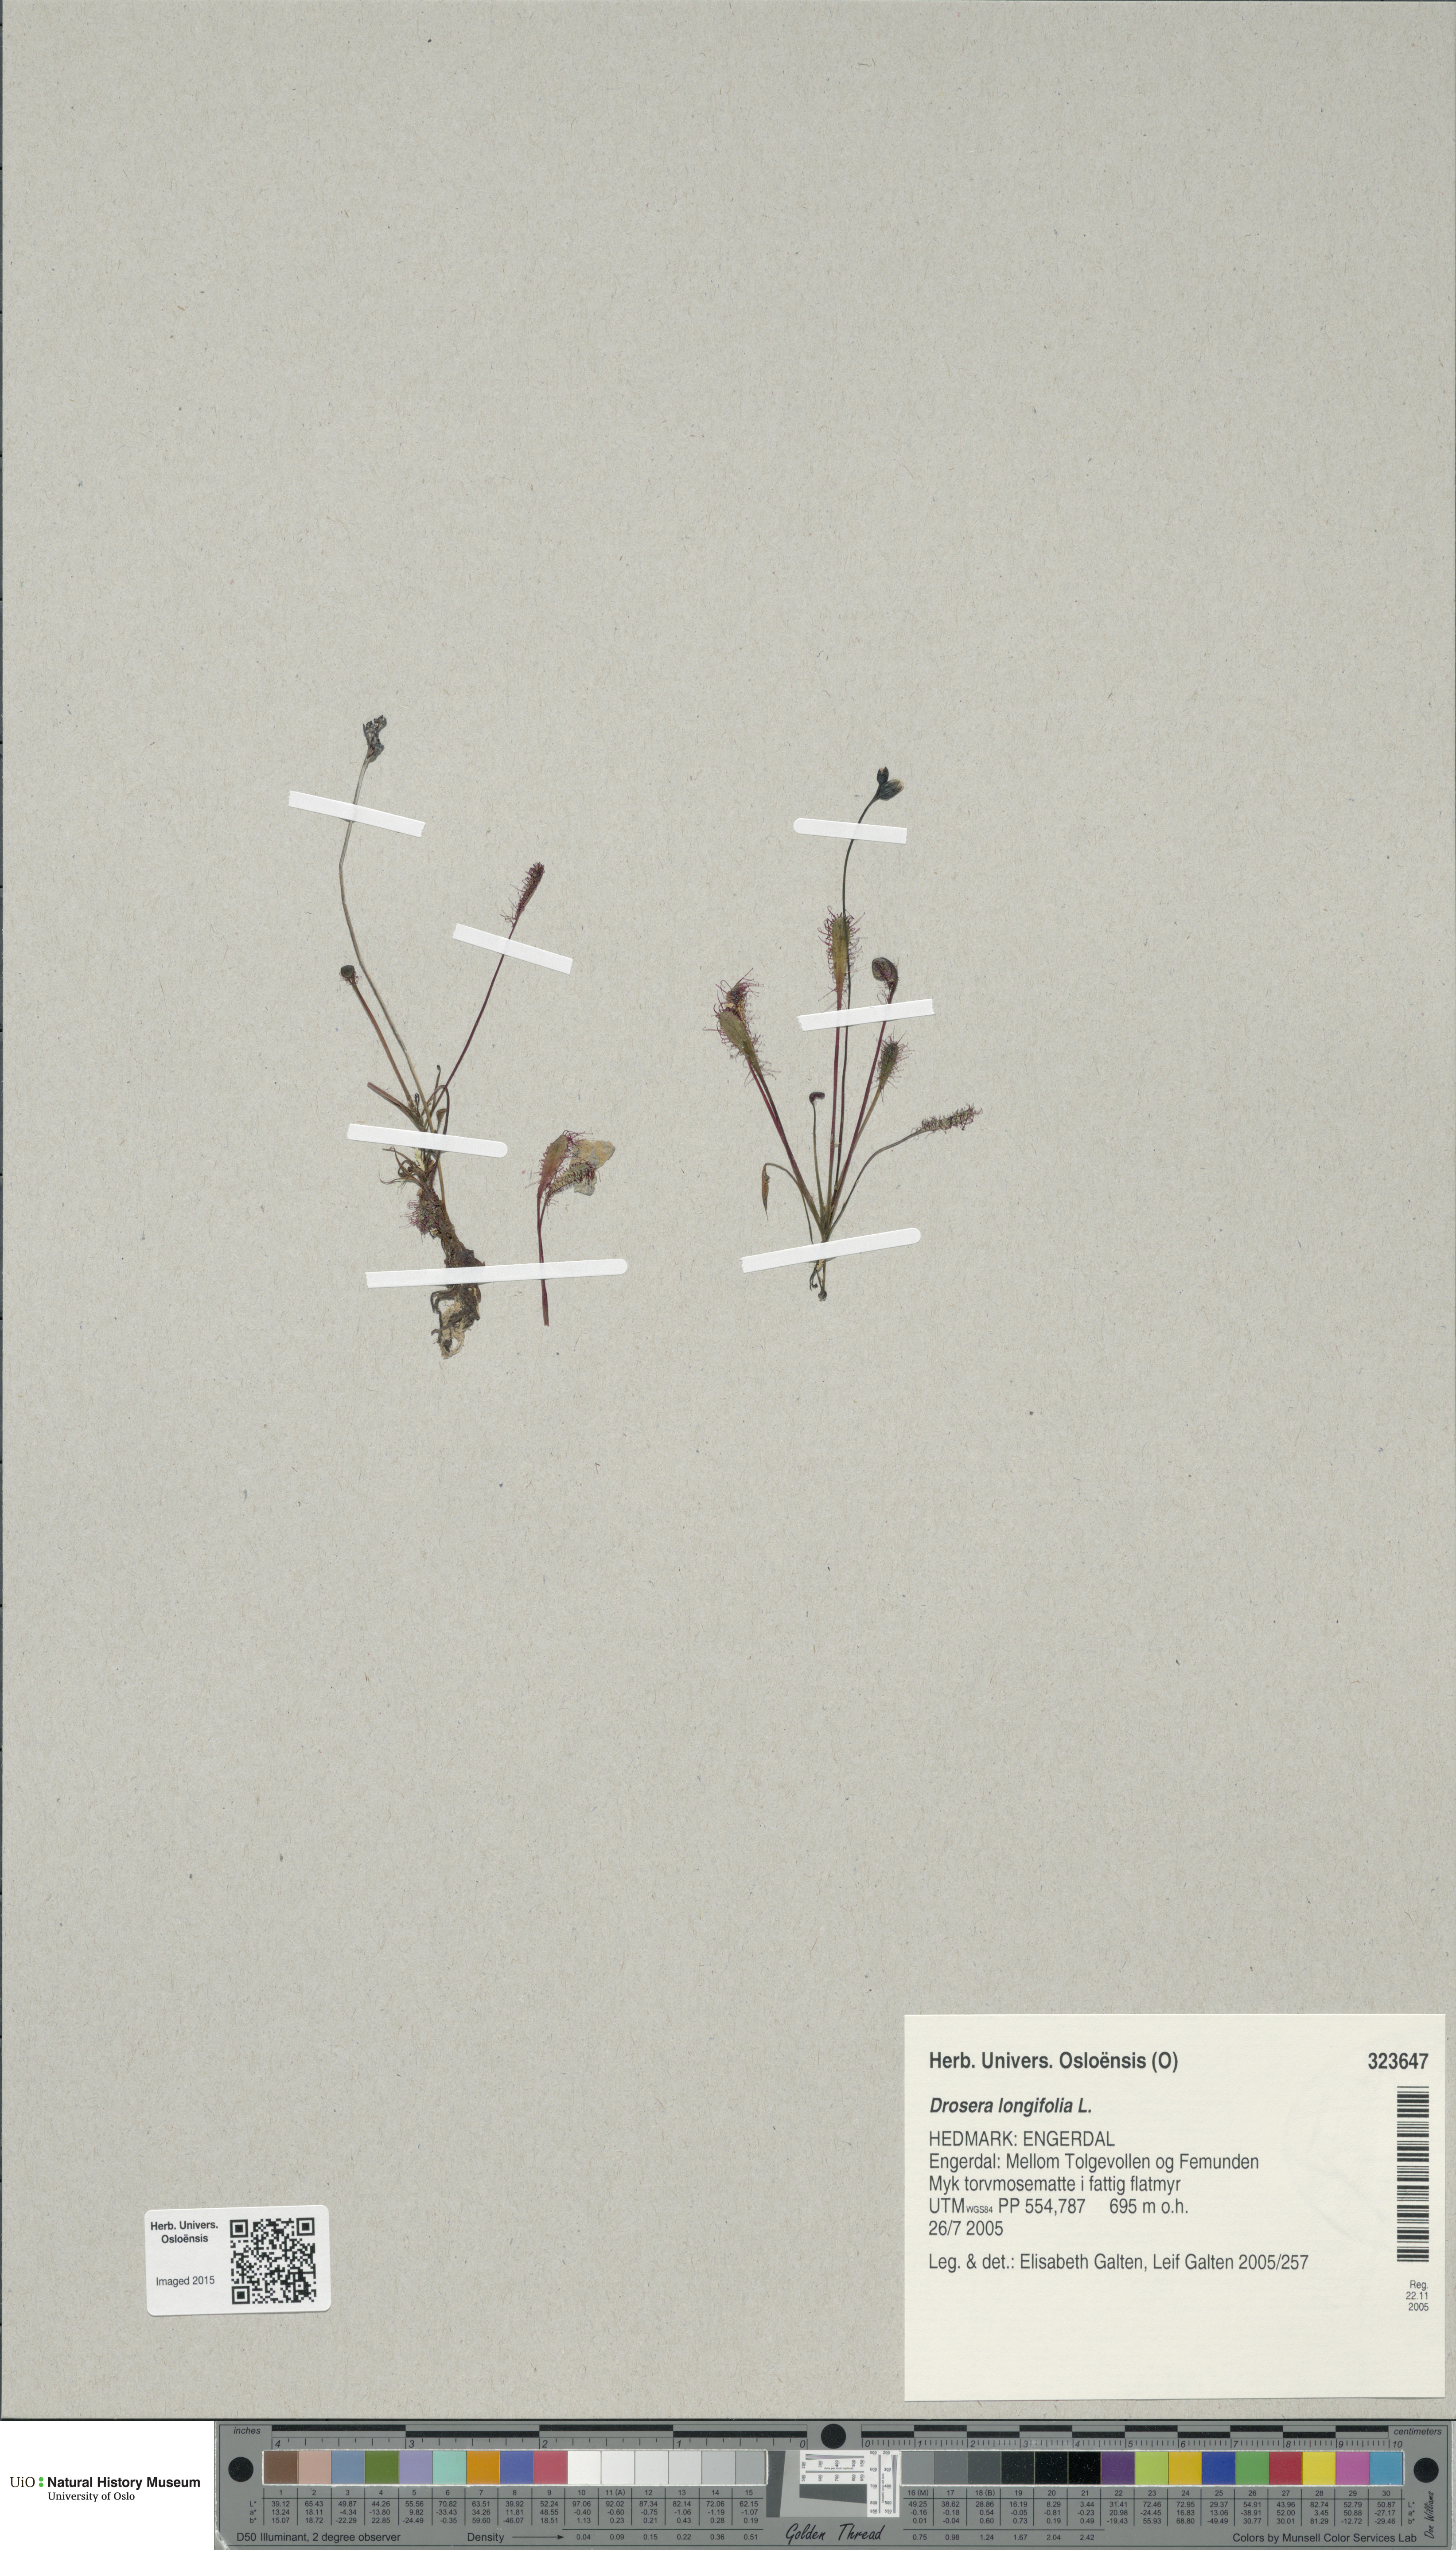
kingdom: Plantae
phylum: Tracheophyta
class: Magnoliopsida
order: Caryophyllales
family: Droseraceae
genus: Drosera
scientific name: Drosera anglica
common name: Great sundew
